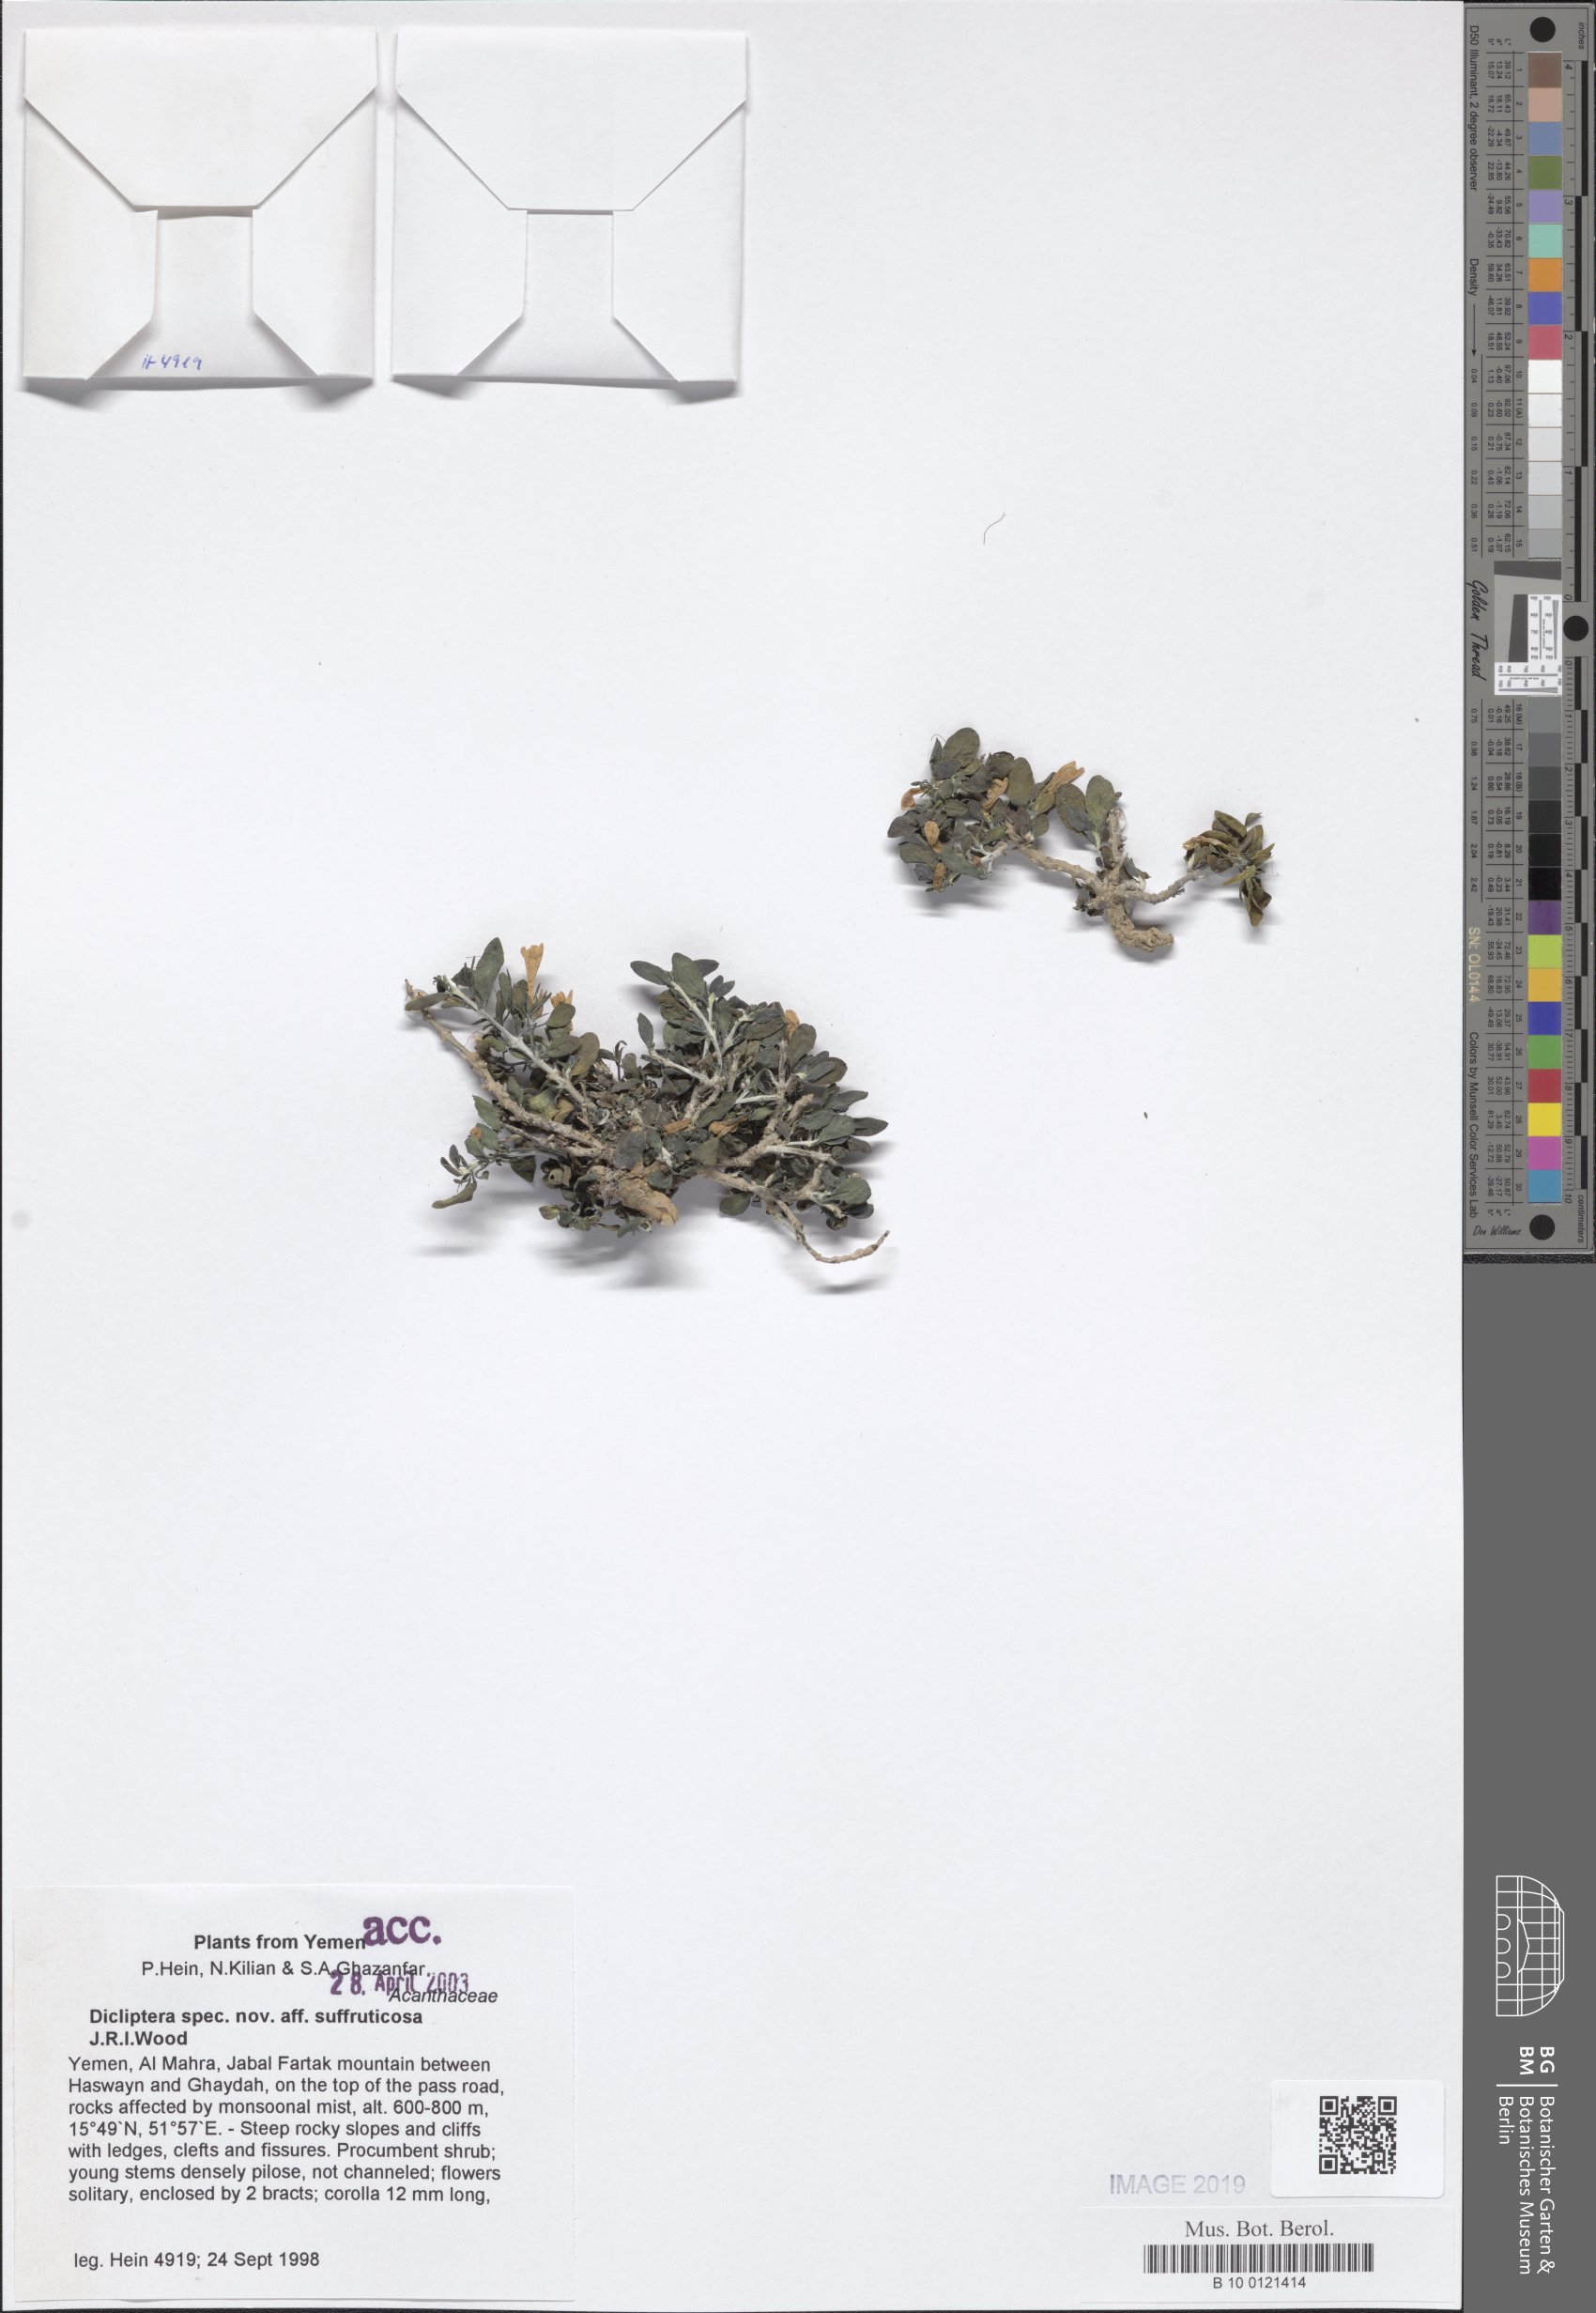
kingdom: Plantae
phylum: Tracheophyta
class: Magnoliopsida
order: Lamiales
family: Acanthaceae
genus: Dicliptera
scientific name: Dicliptera suffruticosa
